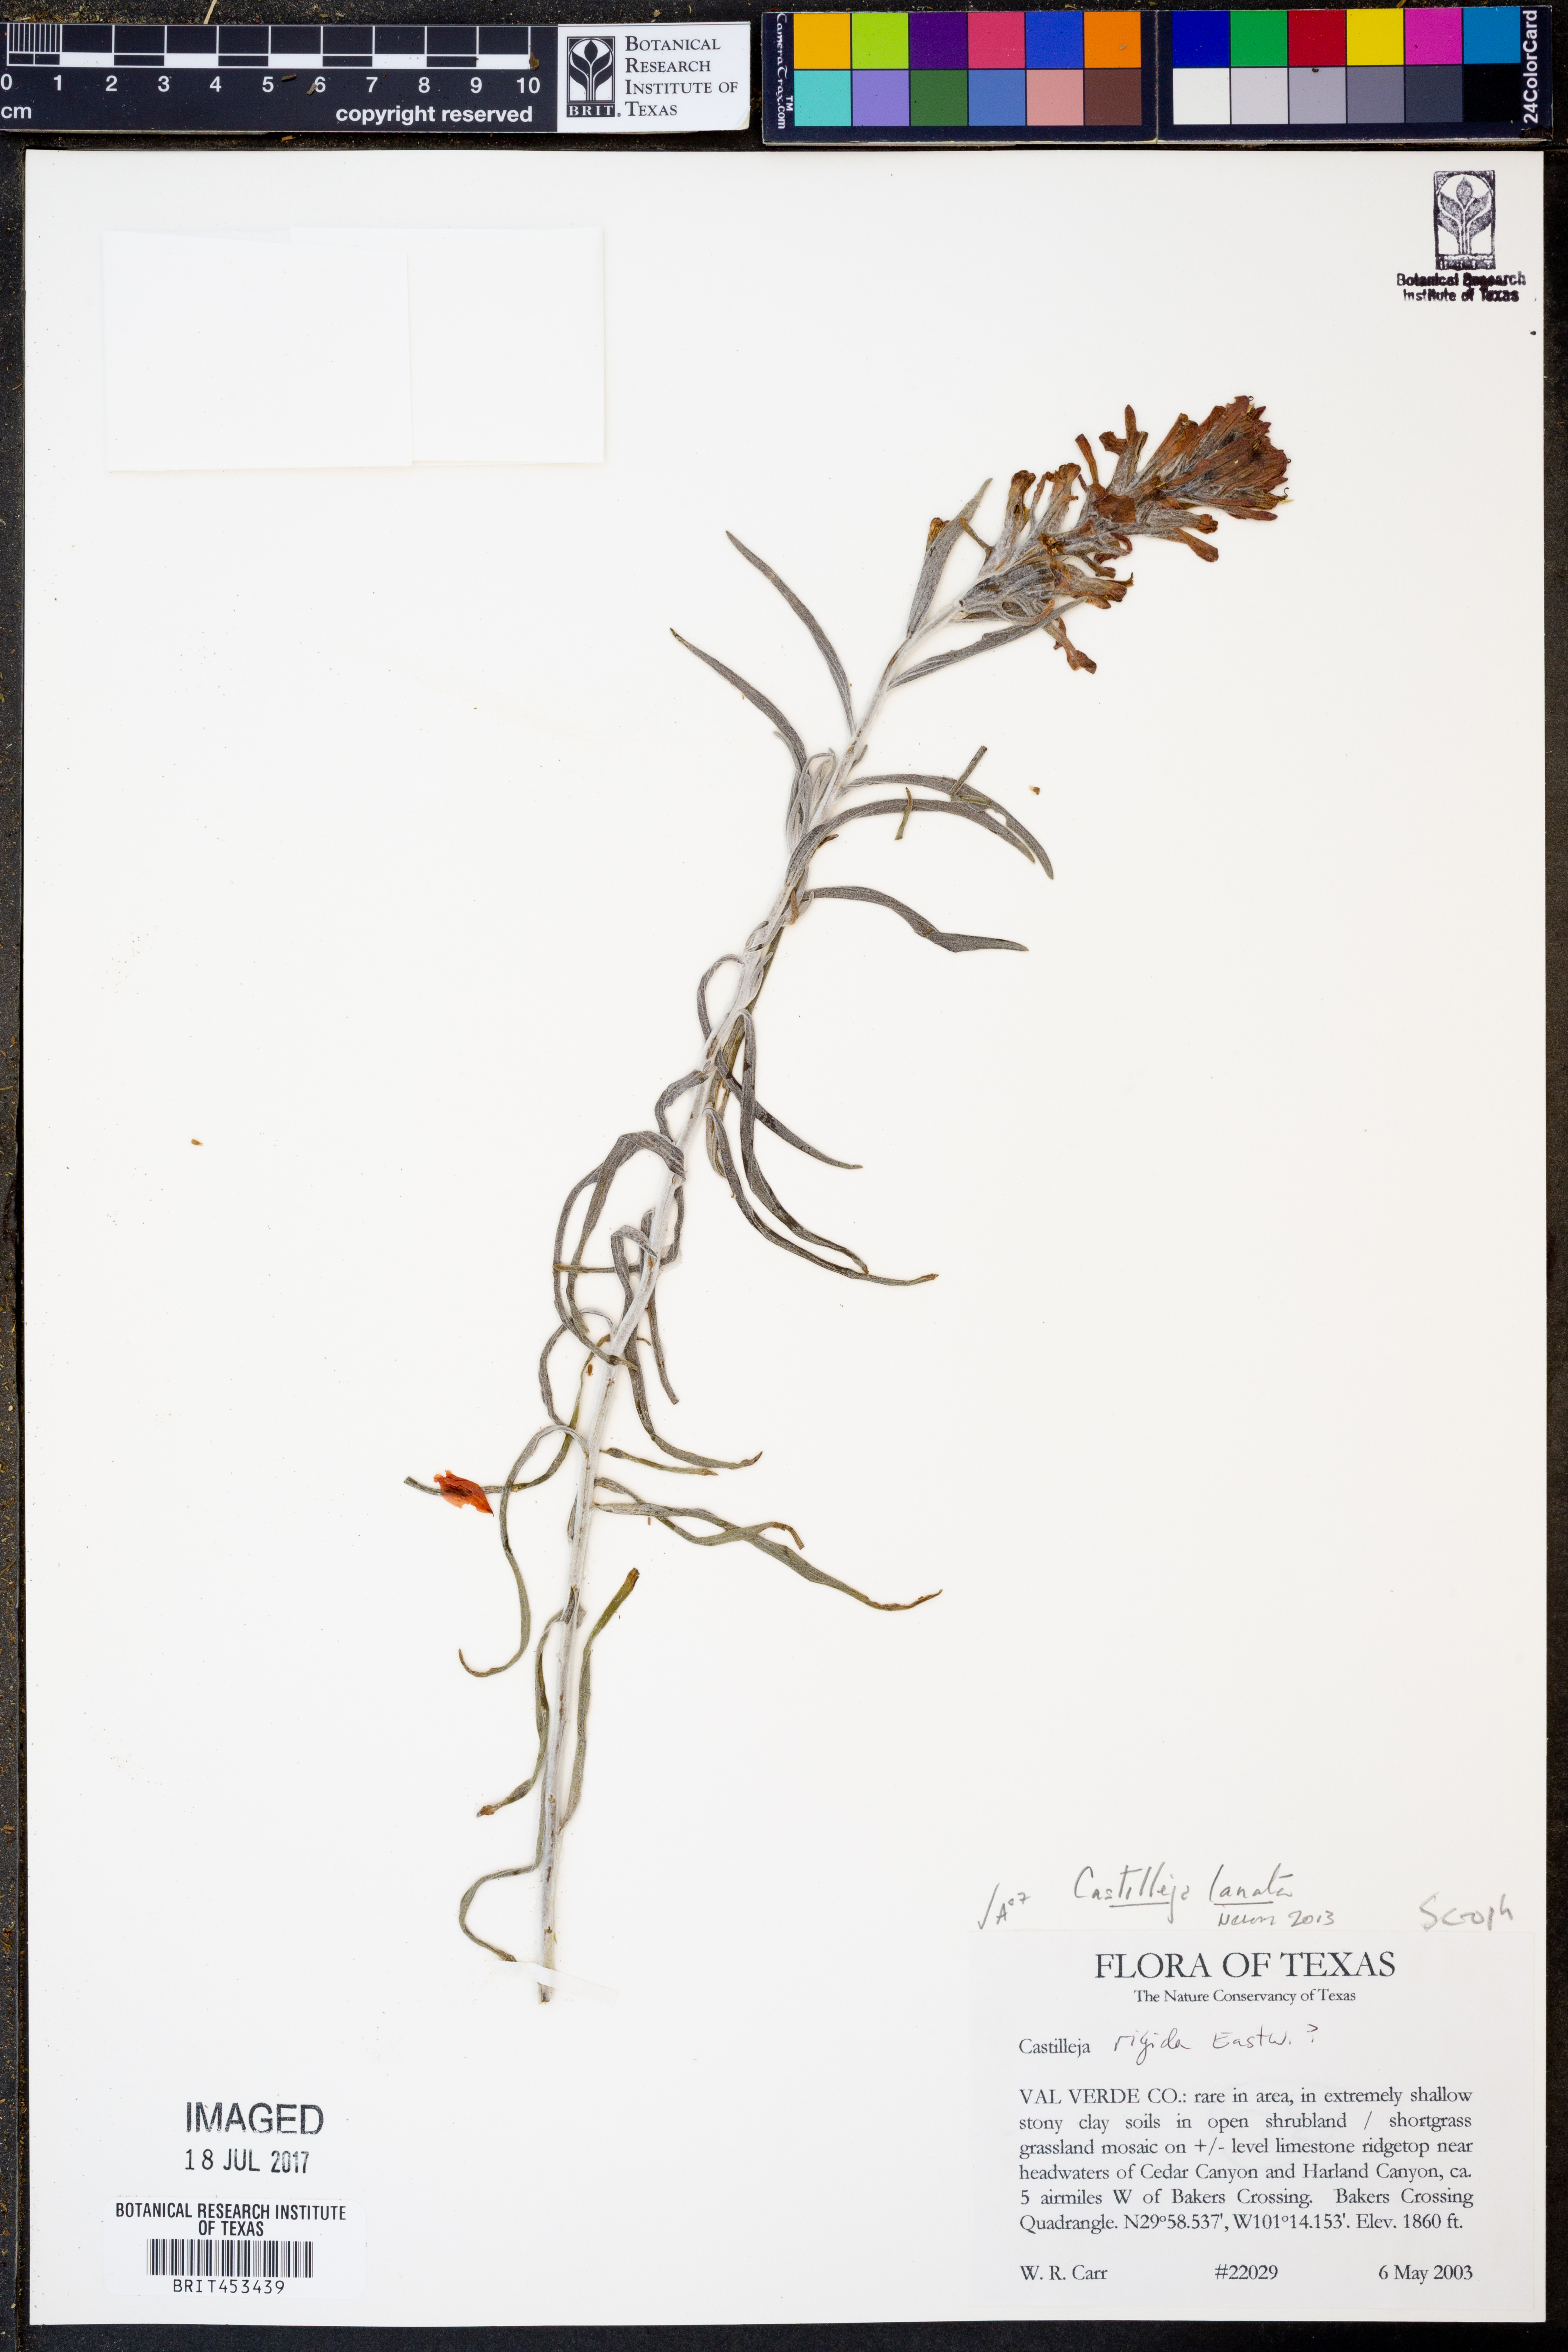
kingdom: Plantae
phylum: Tracheophyta
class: Magnoliopsida
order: Lamiales
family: Orobanchaceae
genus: Castilleja
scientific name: Castilleja lanata
